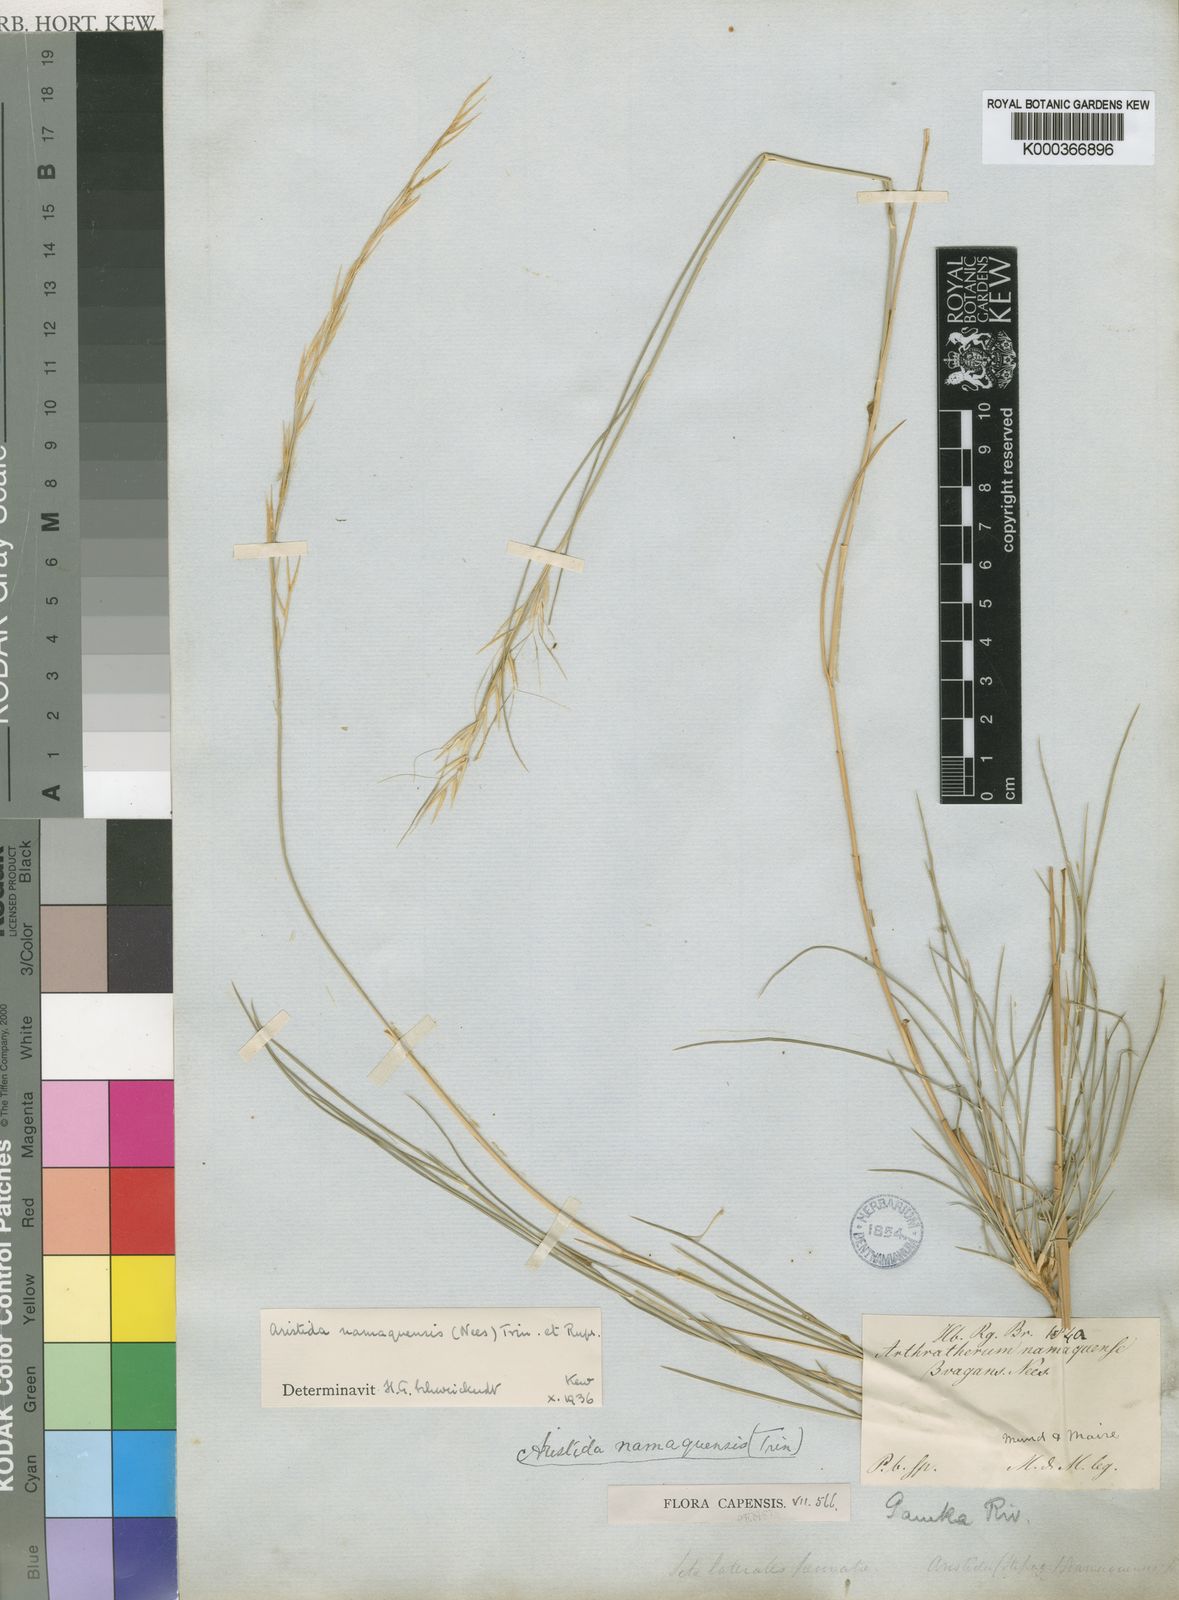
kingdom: Plantae
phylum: Tracheophyta
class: Liliopsida
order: Poales
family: Poaceae
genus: Stipagrostis
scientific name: Stipagrostis namaquensis
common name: River bushman grass
